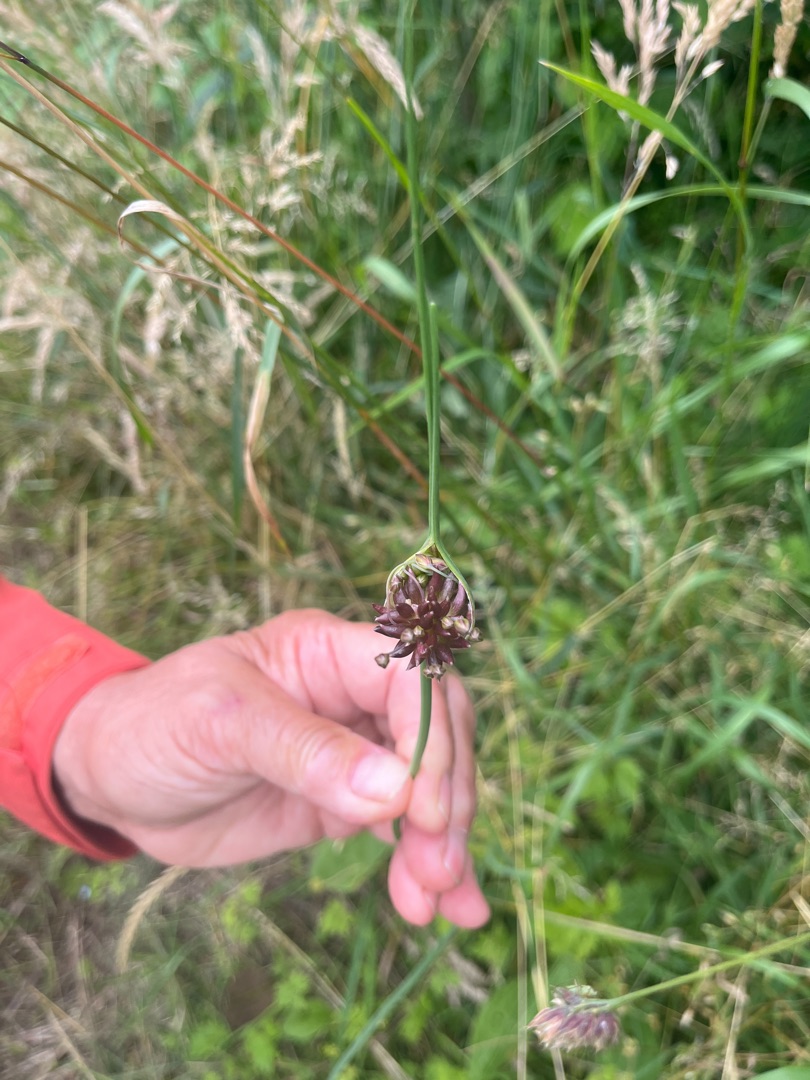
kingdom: Plantae
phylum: Tracheophyta
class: Liliopsida
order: Asparagales
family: Amaryllidaceae
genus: Allium
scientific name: Allium oleraceum
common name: Vild løg
